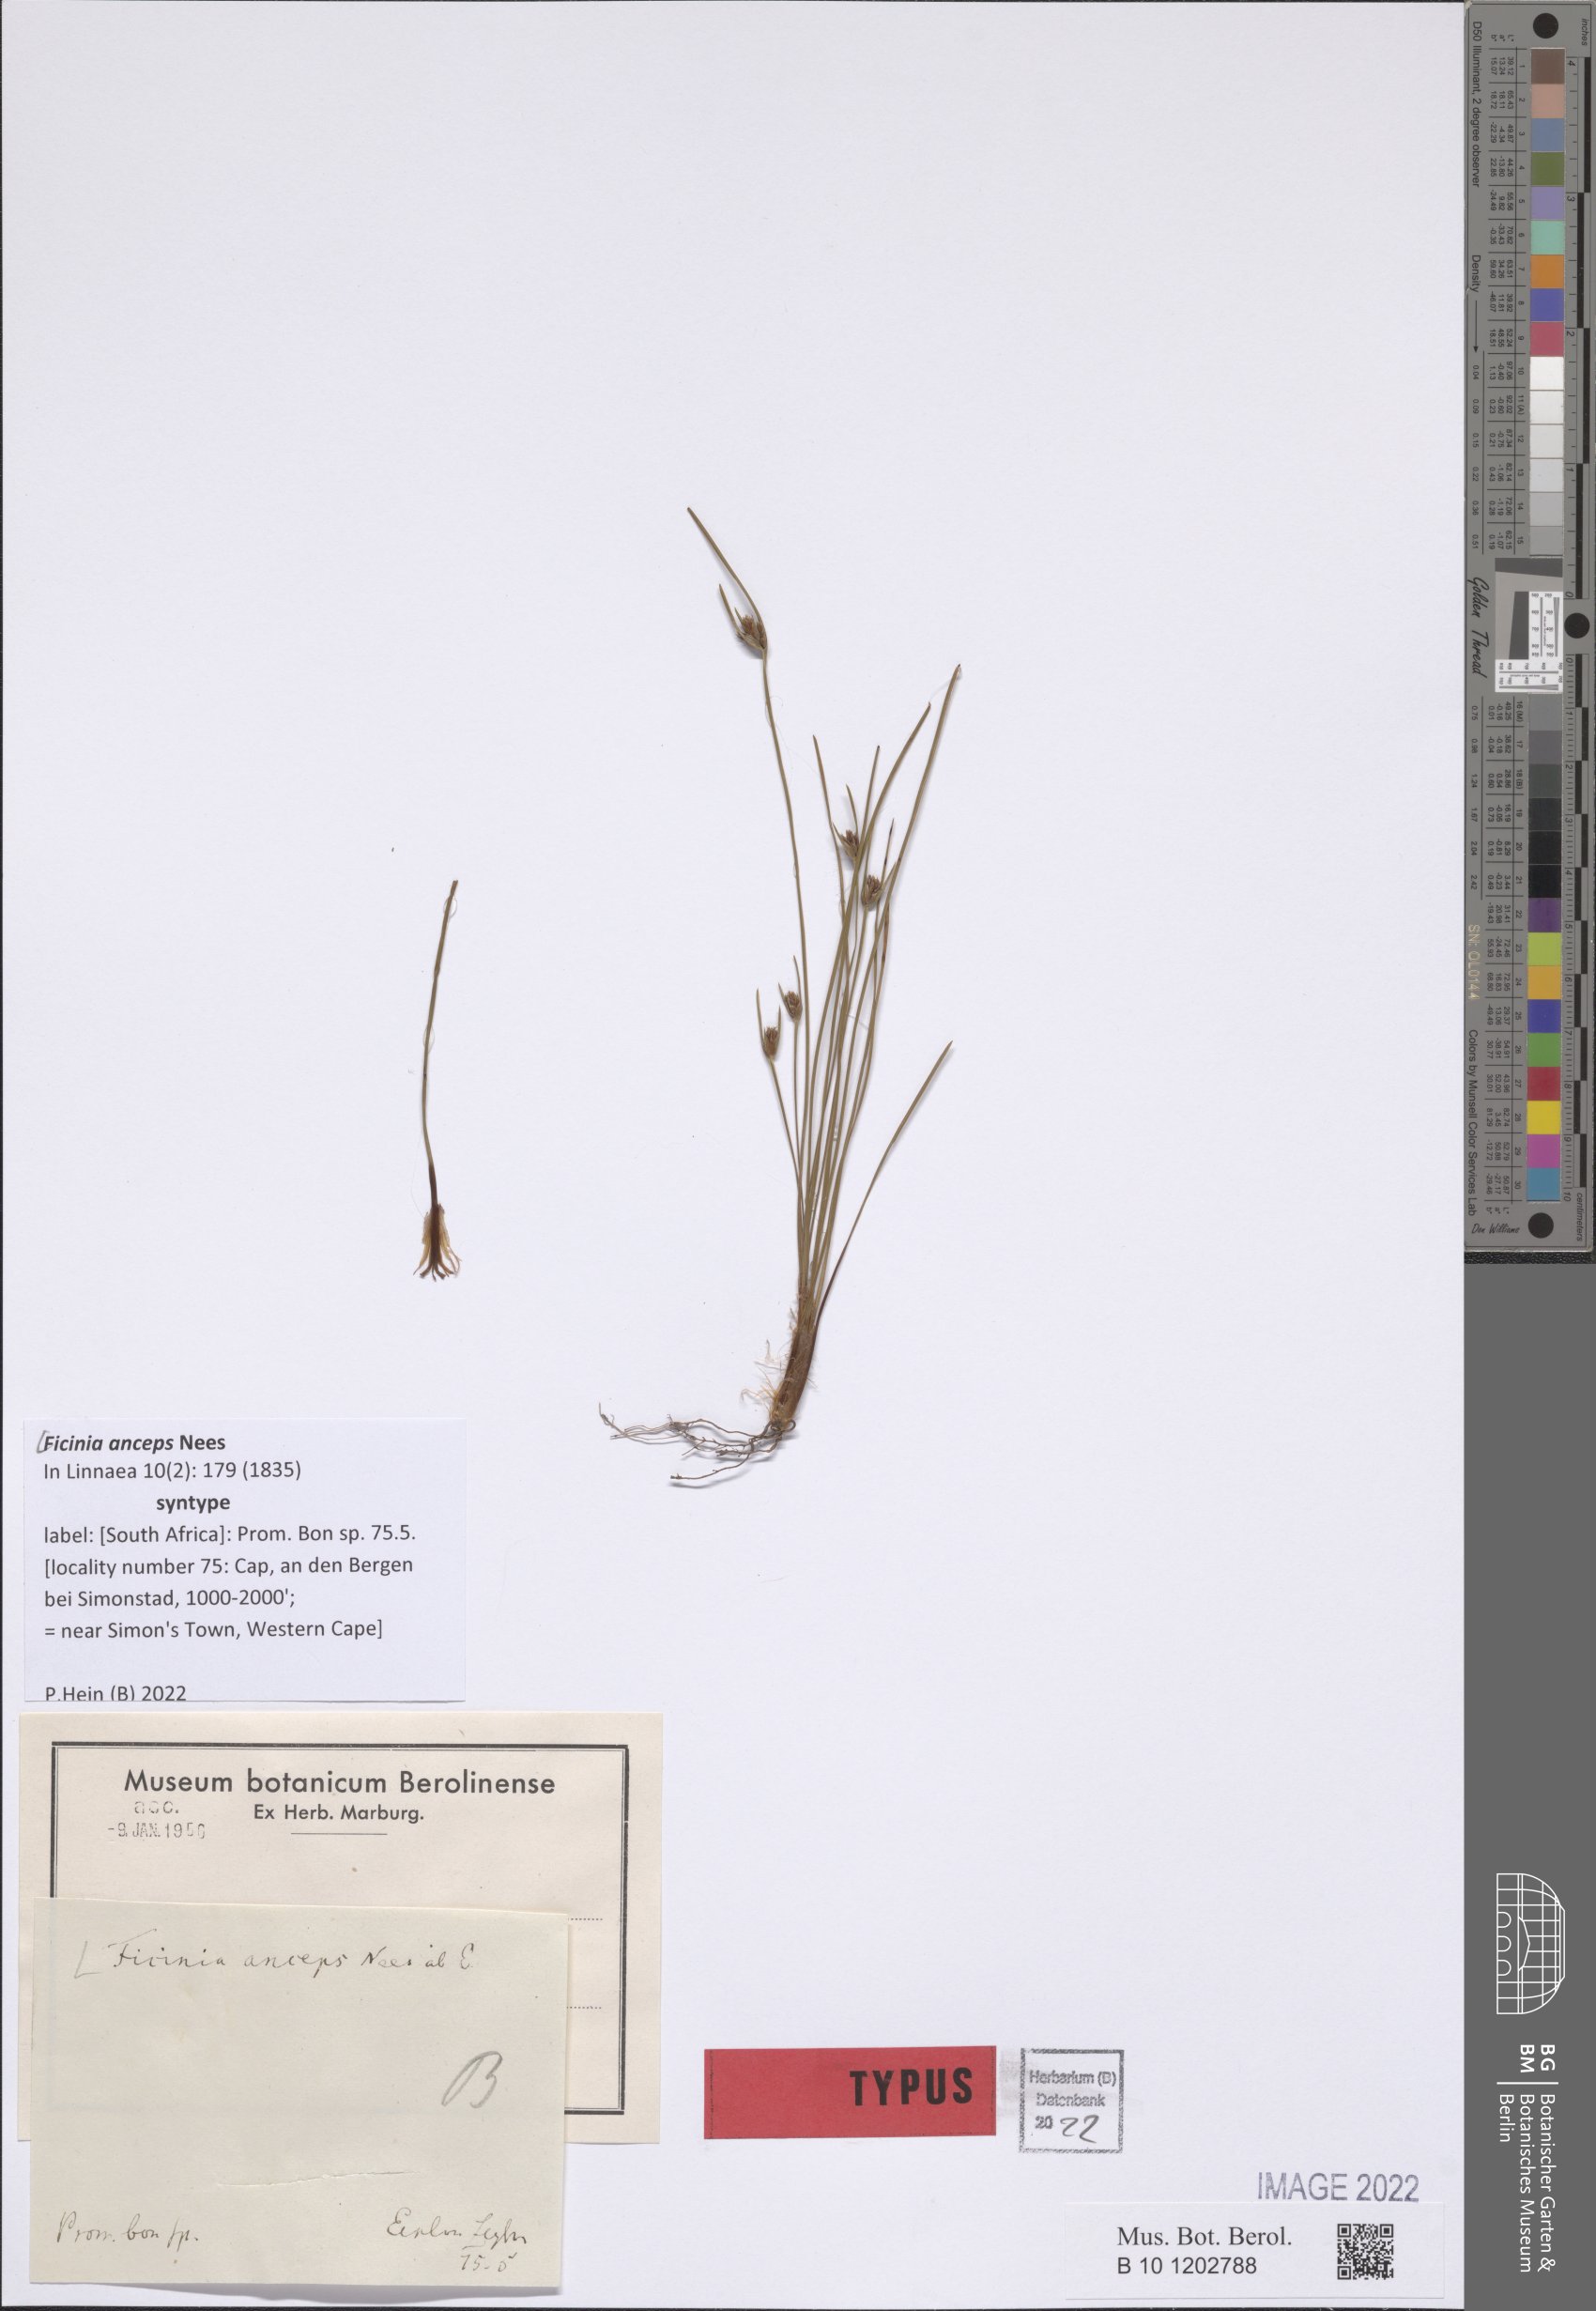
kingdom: Plantae
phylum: Tracheophyta
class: Liliopsida
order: Poales
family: Cyperaceae
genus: Ficinia
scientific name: Ficinia anceps
